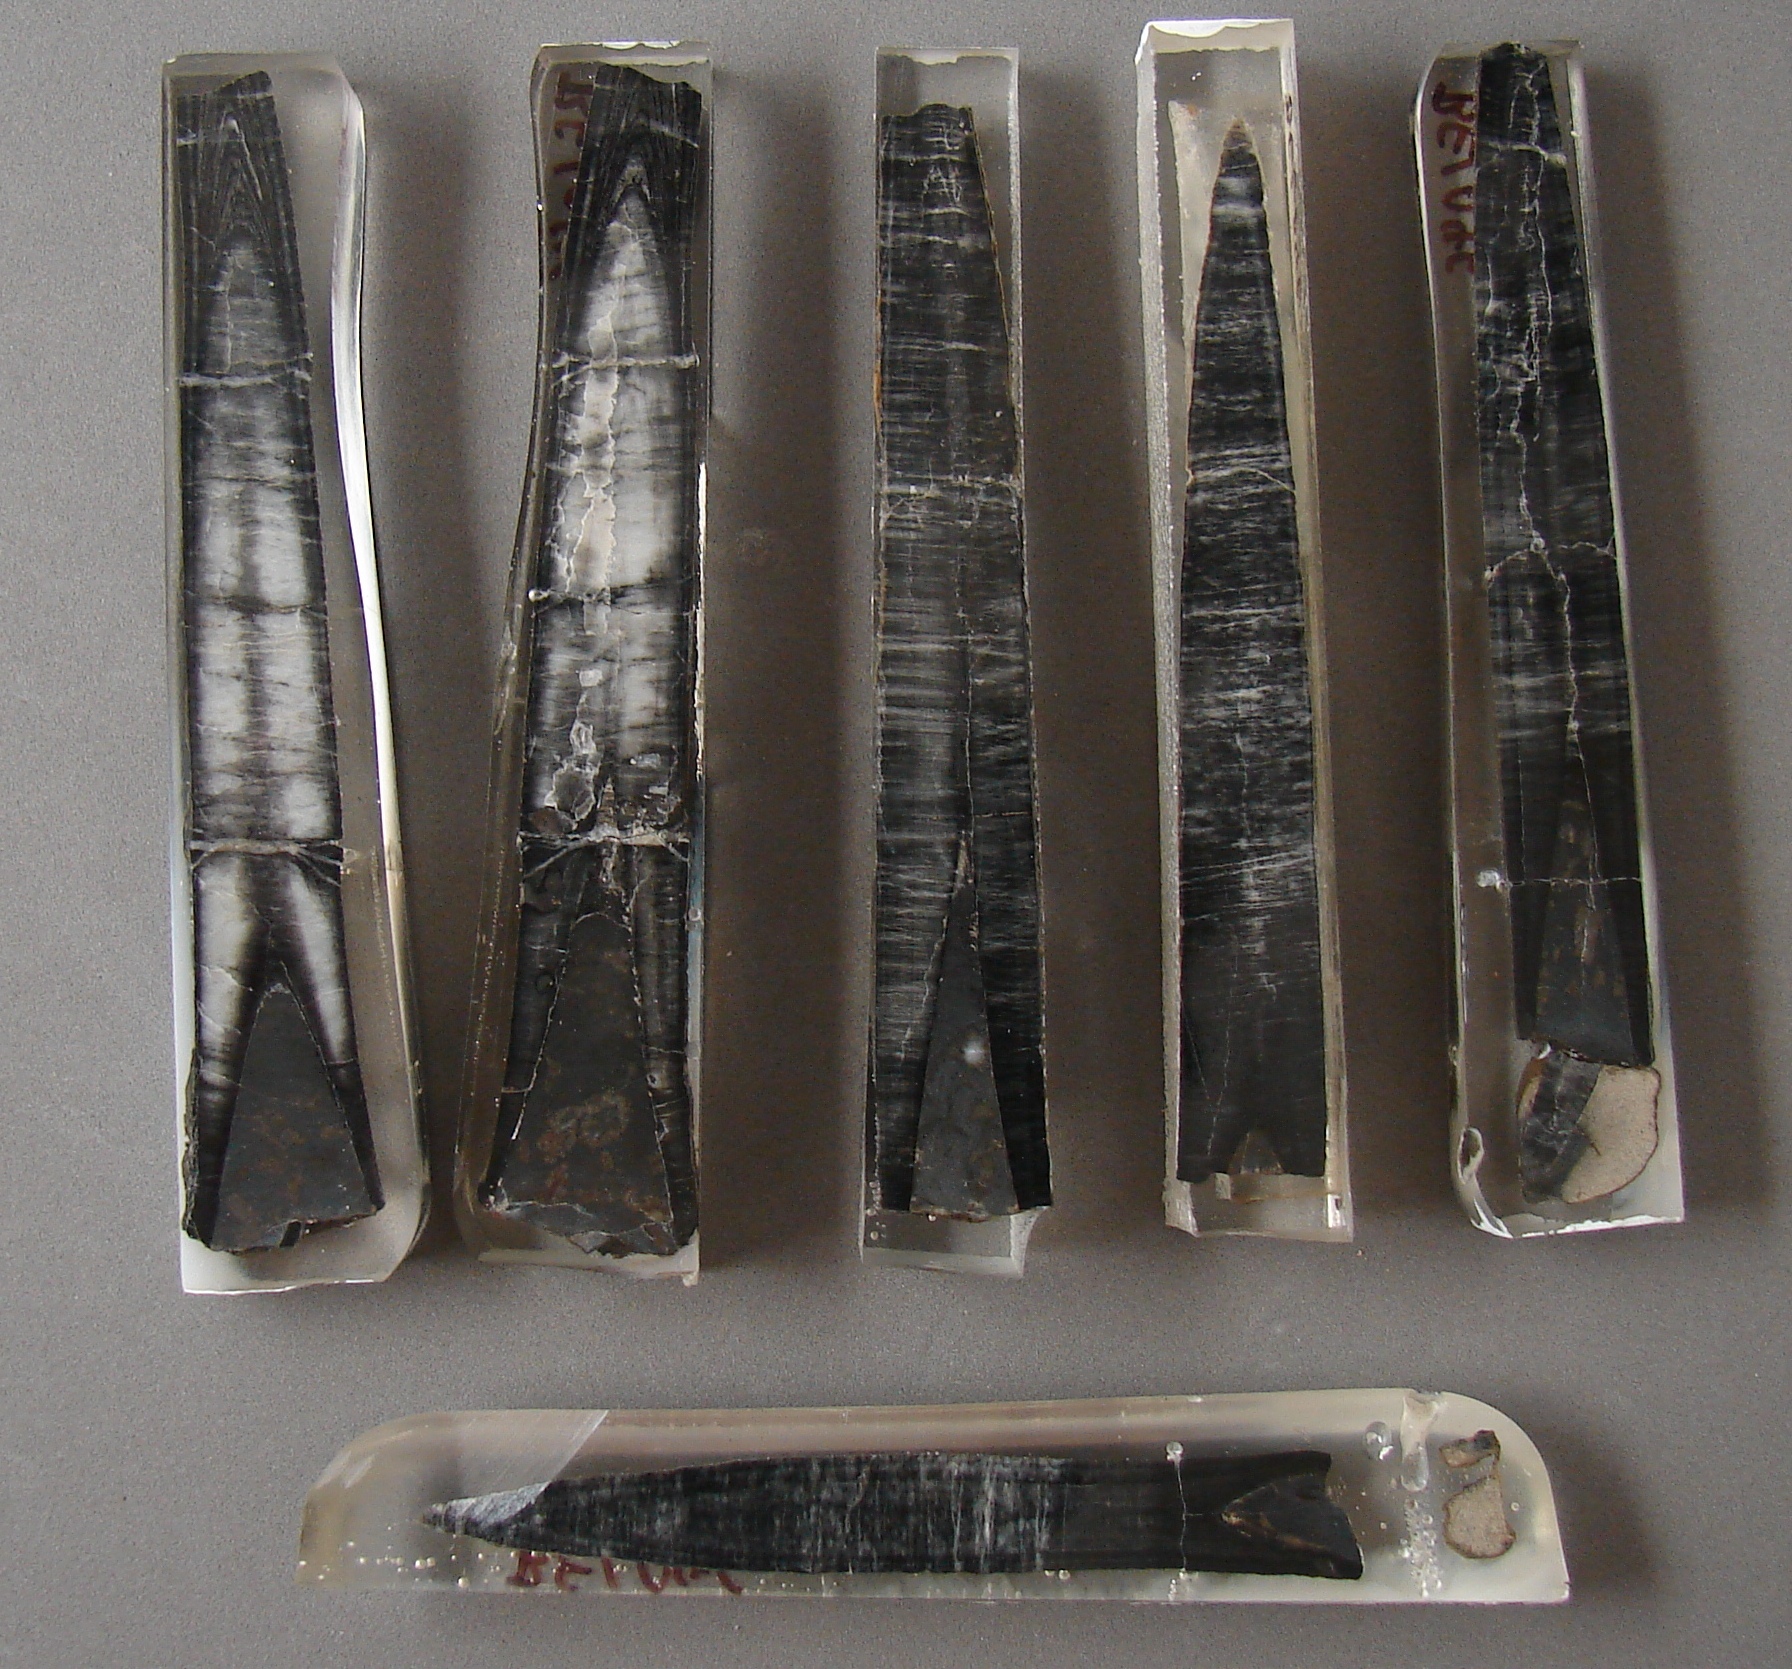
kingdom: Animalia
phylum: Mollusca
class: Cephalopoda
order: Belemnitida
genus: Holcobelus
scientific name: Holcobelus munieri
